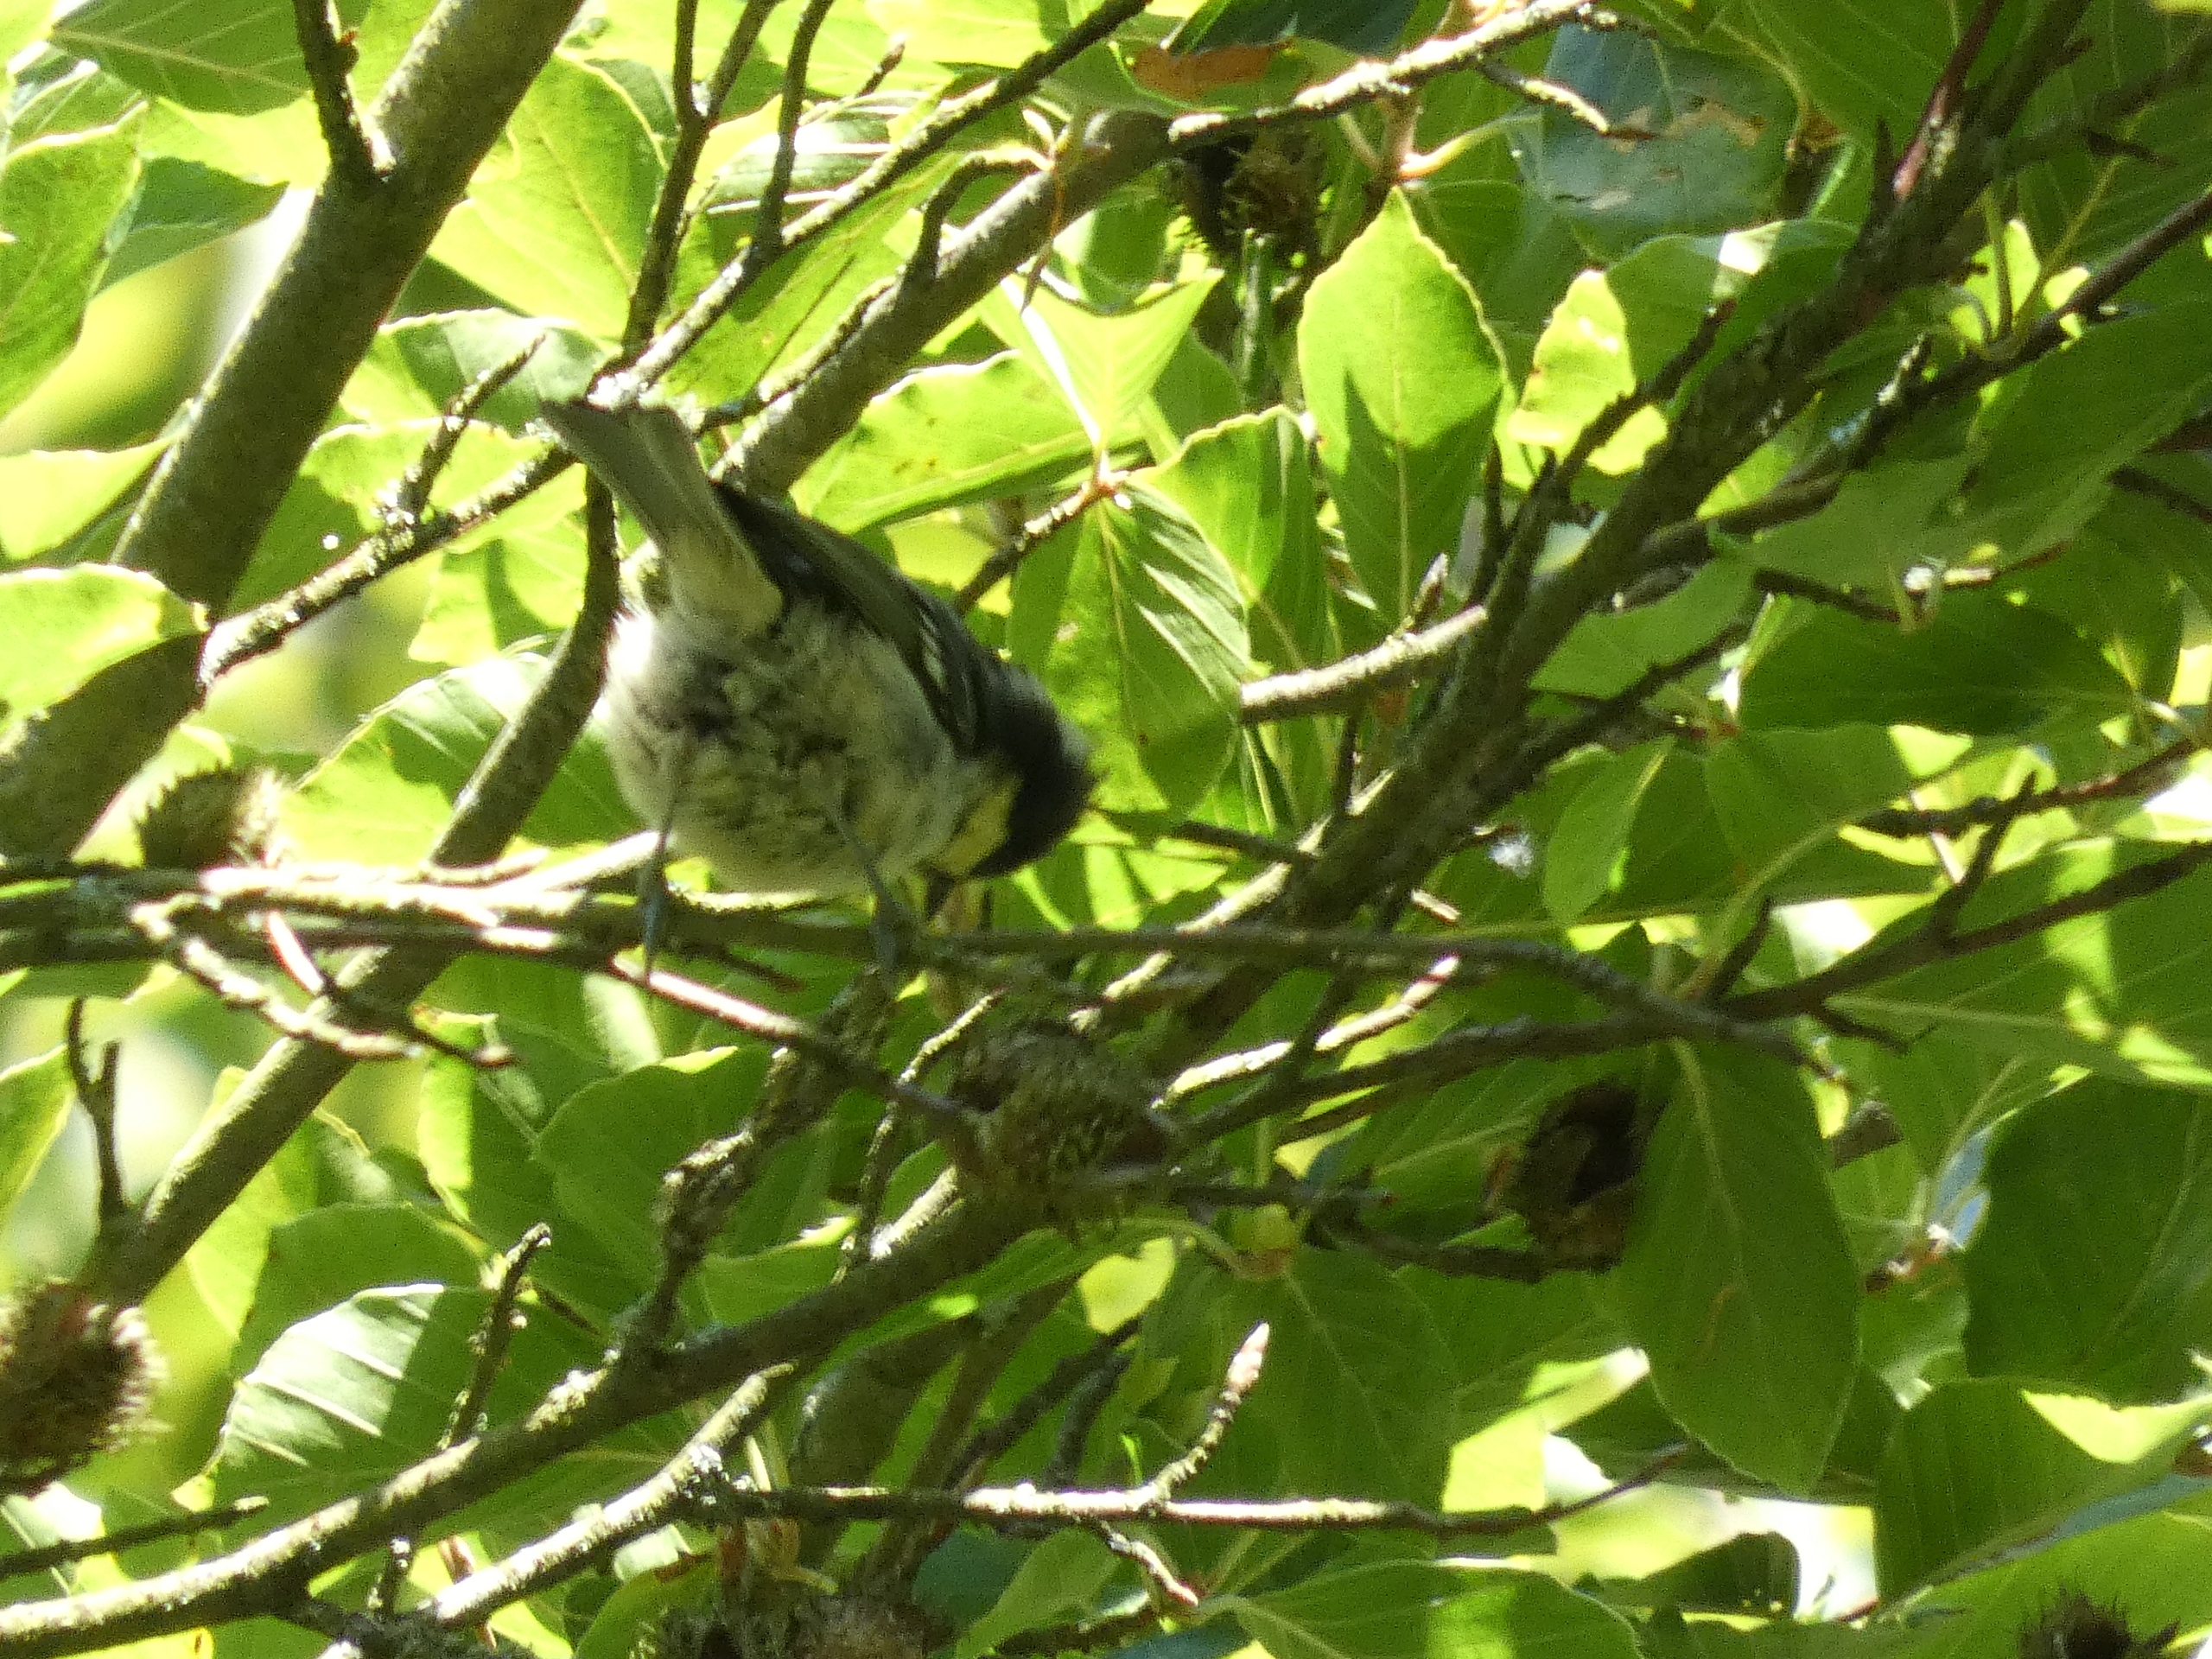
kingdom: Animalia
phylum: Chordata
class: Aves
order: Passeriformes
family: Paridae
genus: Periparus
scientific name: Periparus ater
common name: Sortmejse
